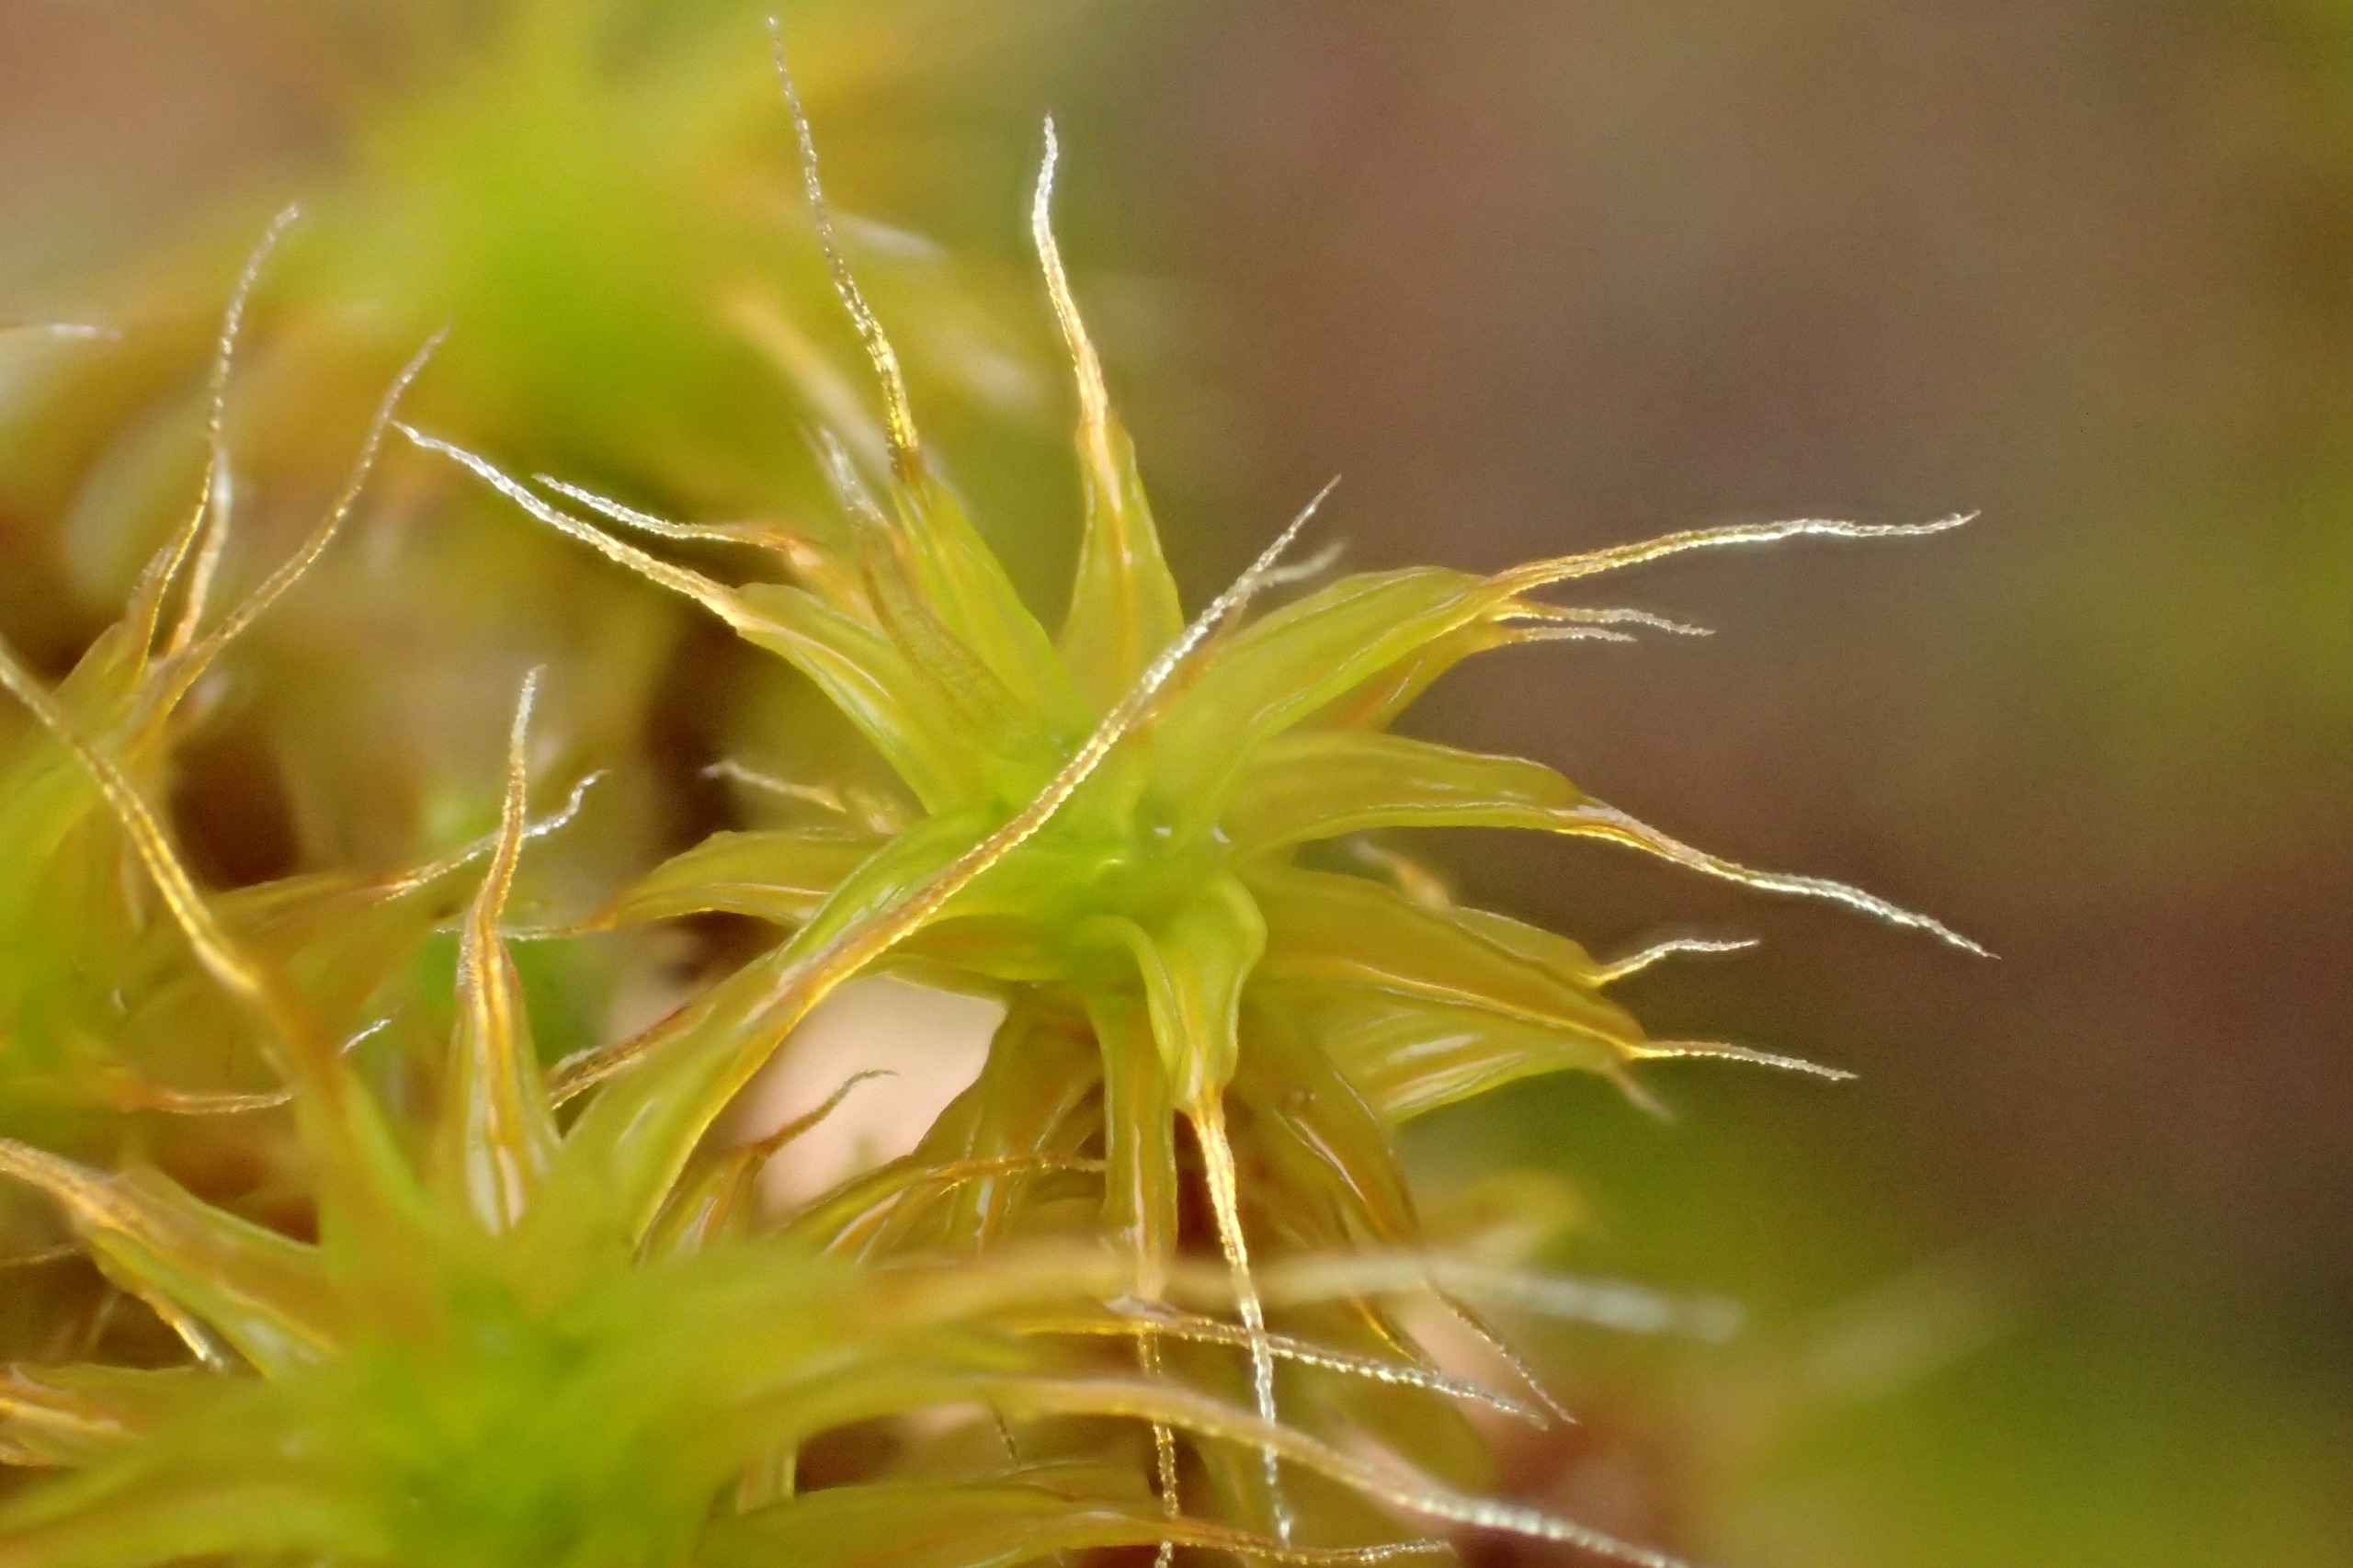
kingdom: Plantae
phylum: Bryophyta
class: Bryopsida
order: Pottiales
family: Pottiaceae
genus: Syntrichia
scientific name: Syntrichia ruralis
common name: Spidsbladet hårstjerne
